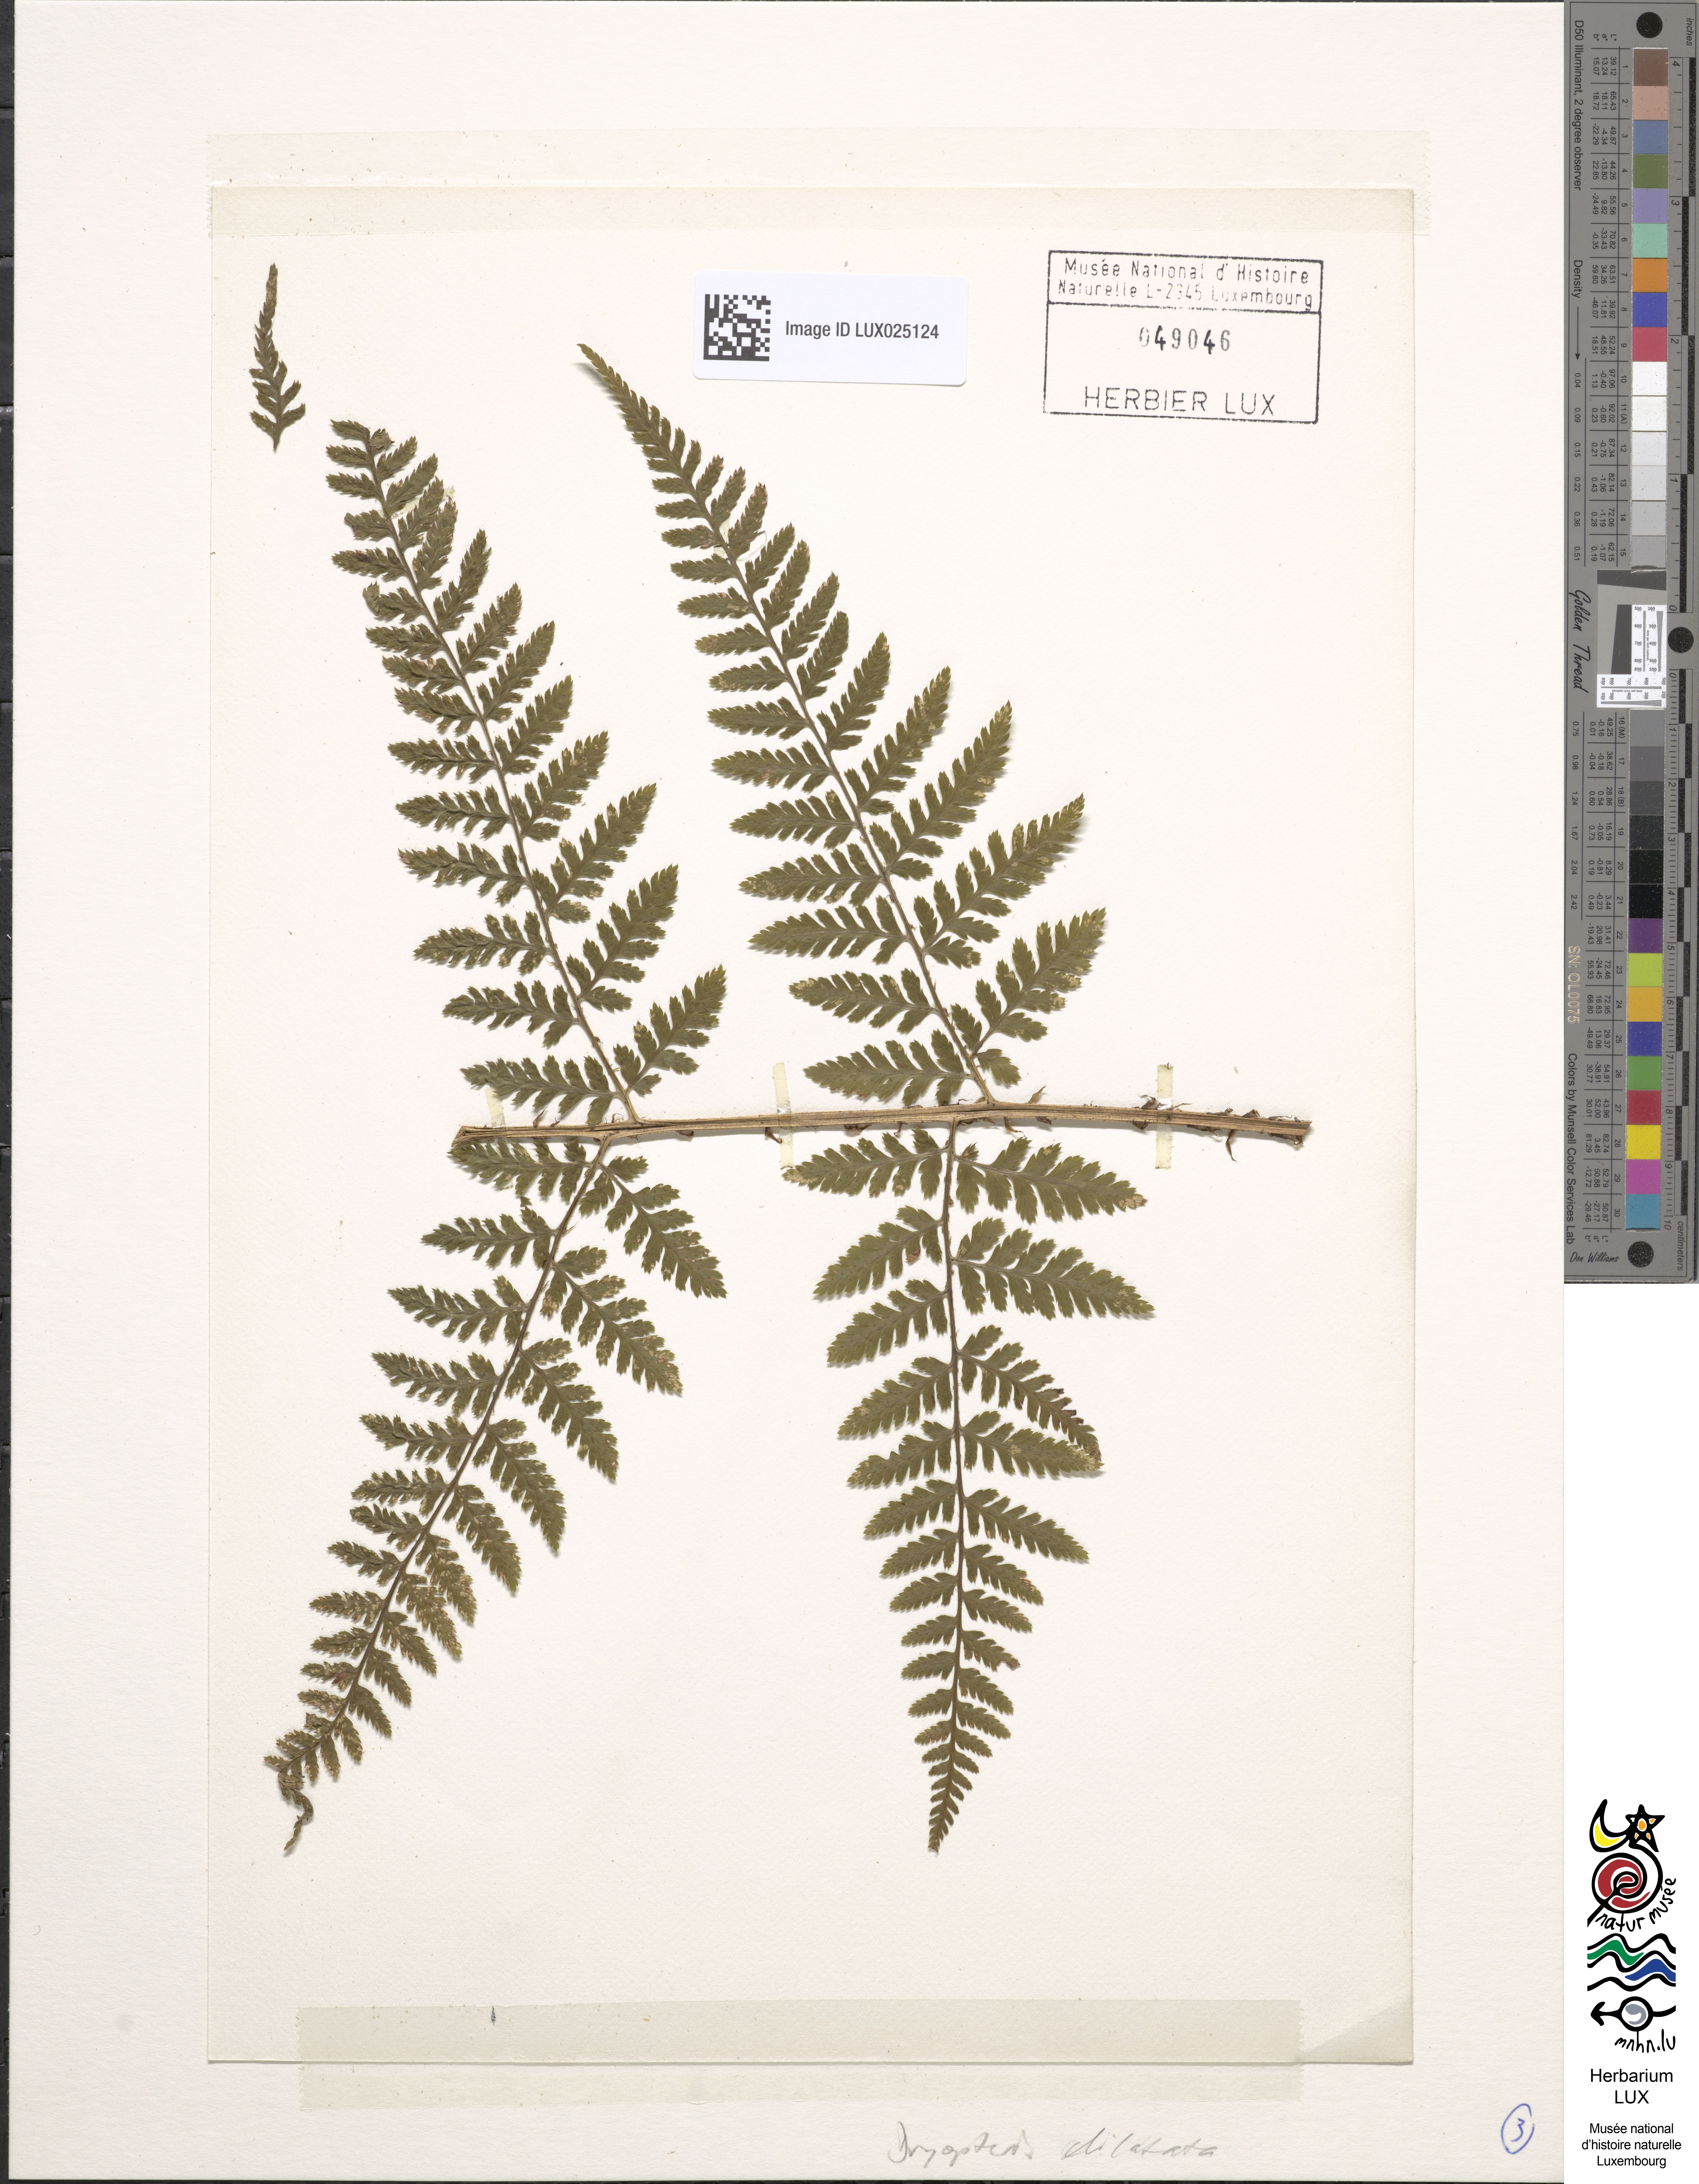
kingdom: Plantae
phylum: Tracheophyta
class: Polypodiopsida
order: Polypodiales
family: Dryopteridaceae
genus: Dryopteris
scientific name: Dryopteris dilatata
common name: Broad buckler-fern
